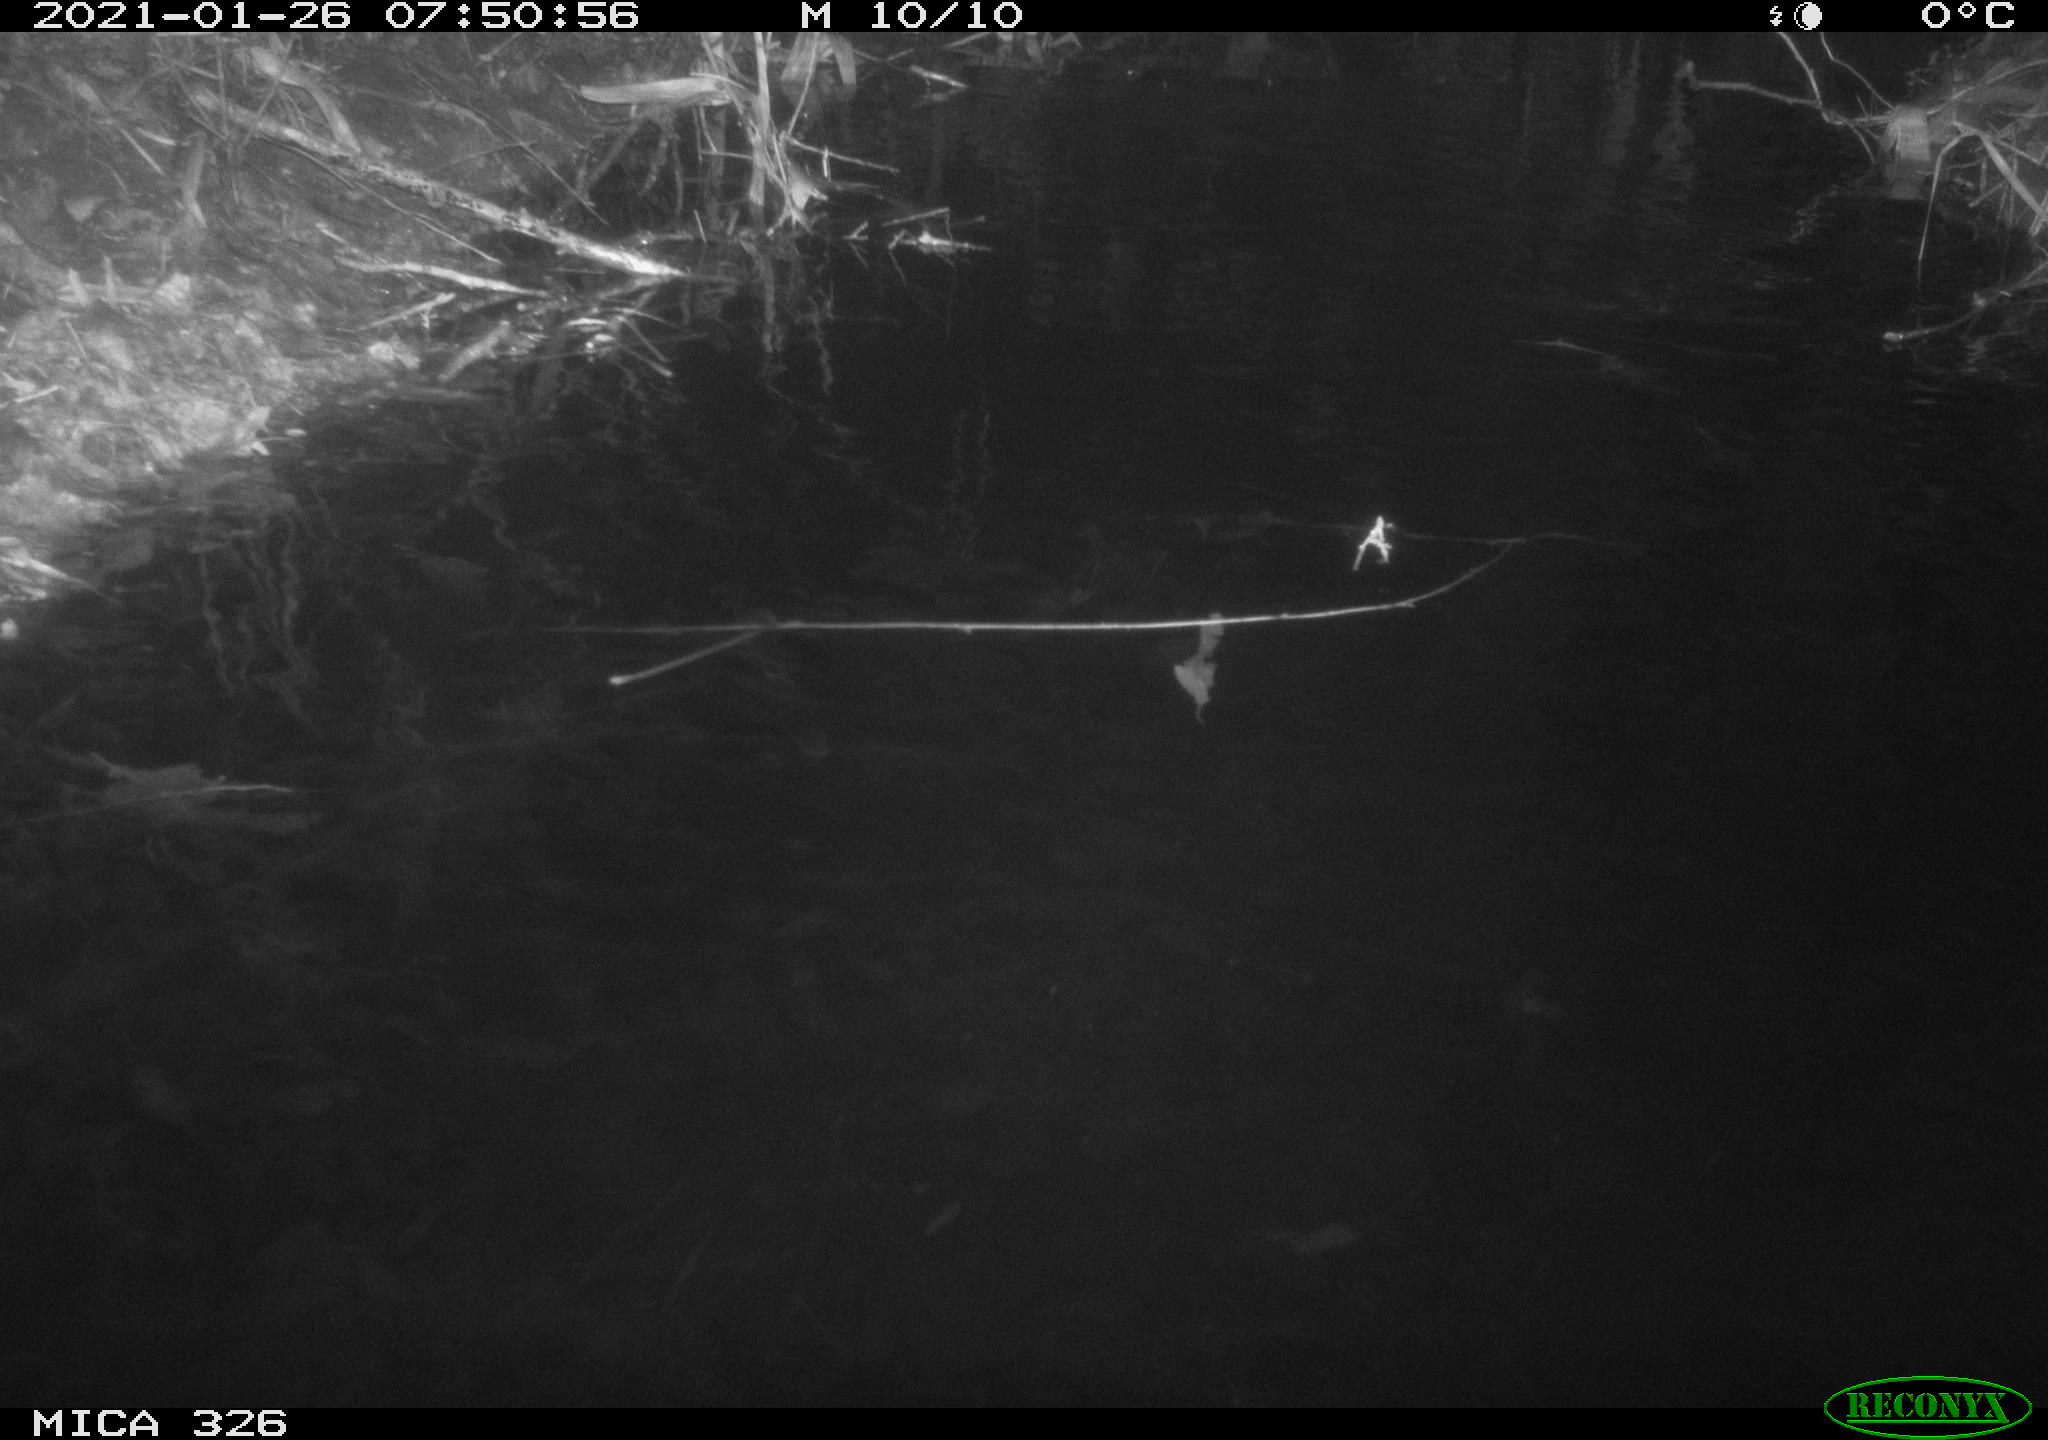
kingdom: Animalia
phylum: Chordata
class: Mammalia
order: Rodentia
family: Cricetidae
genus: Ondatra
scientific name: Ondatra zibethicus
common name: Muskrat
